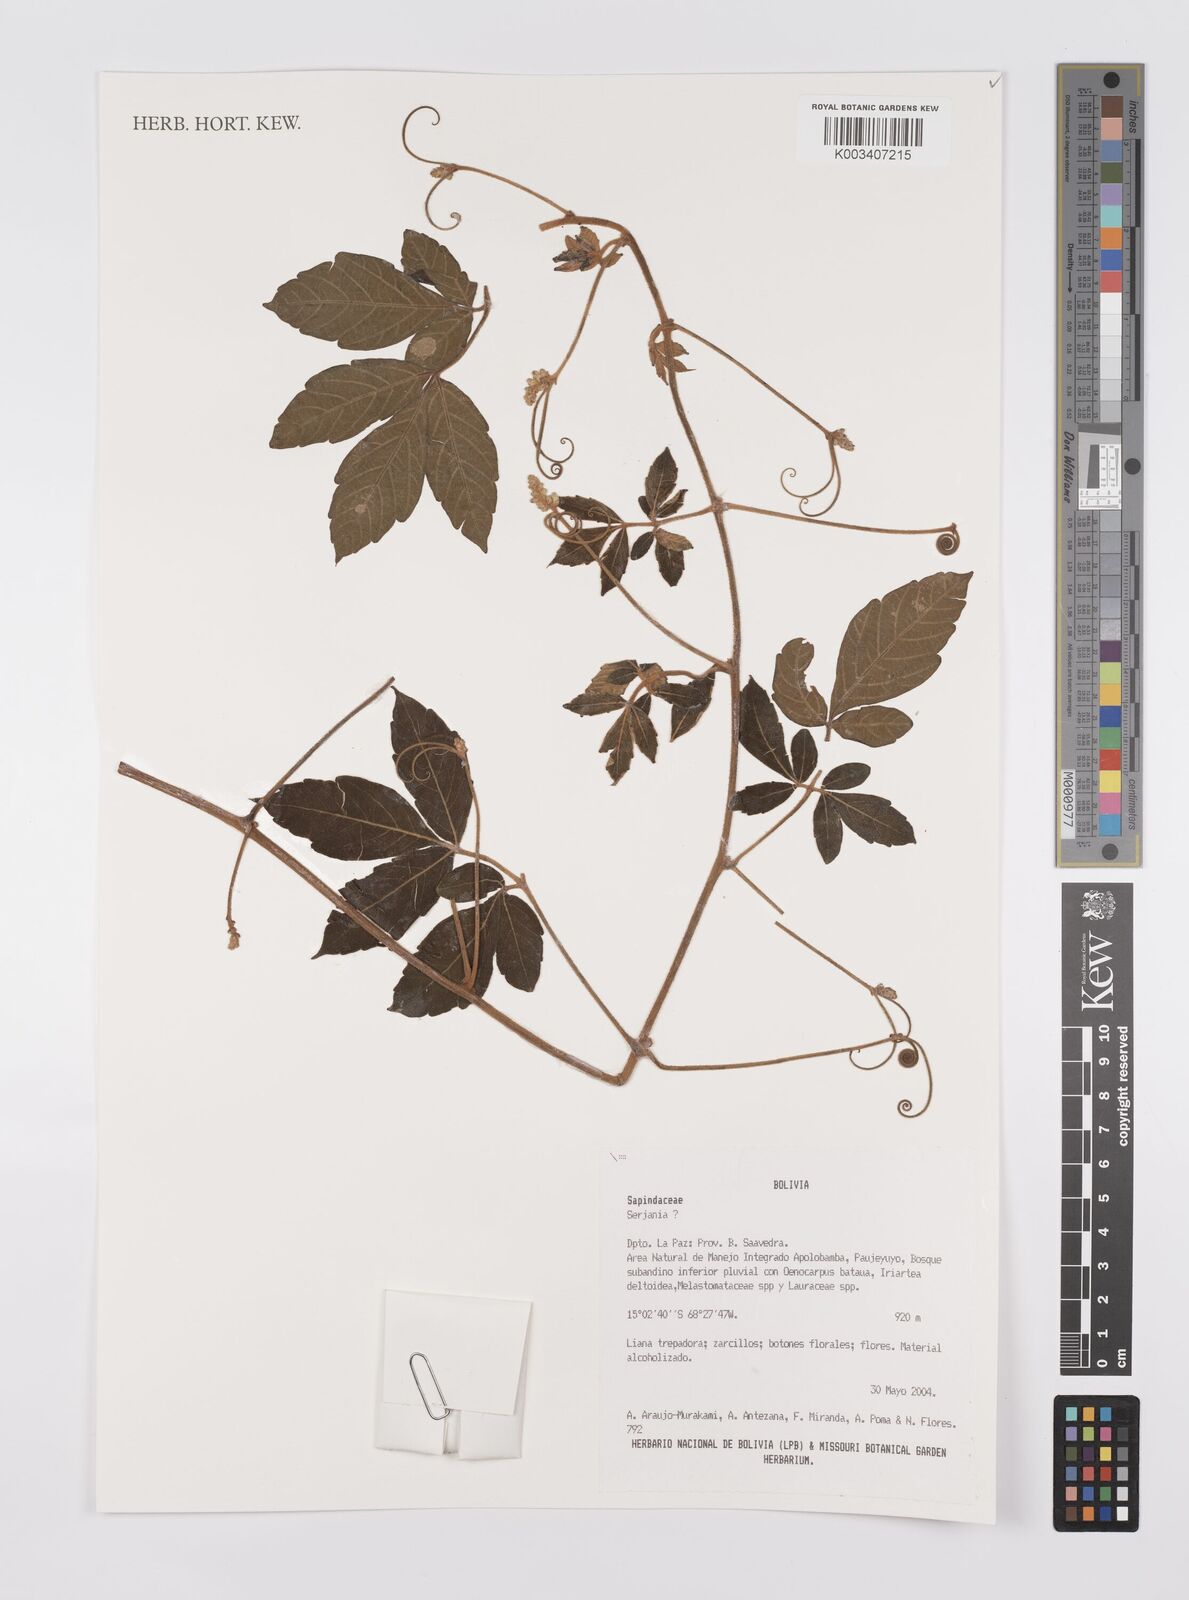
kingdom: Plantae
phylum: Tracheophyta
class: Magnoliopsida
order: Sapindales
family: Sapindaceae
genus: Serjania
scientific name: Serjania
